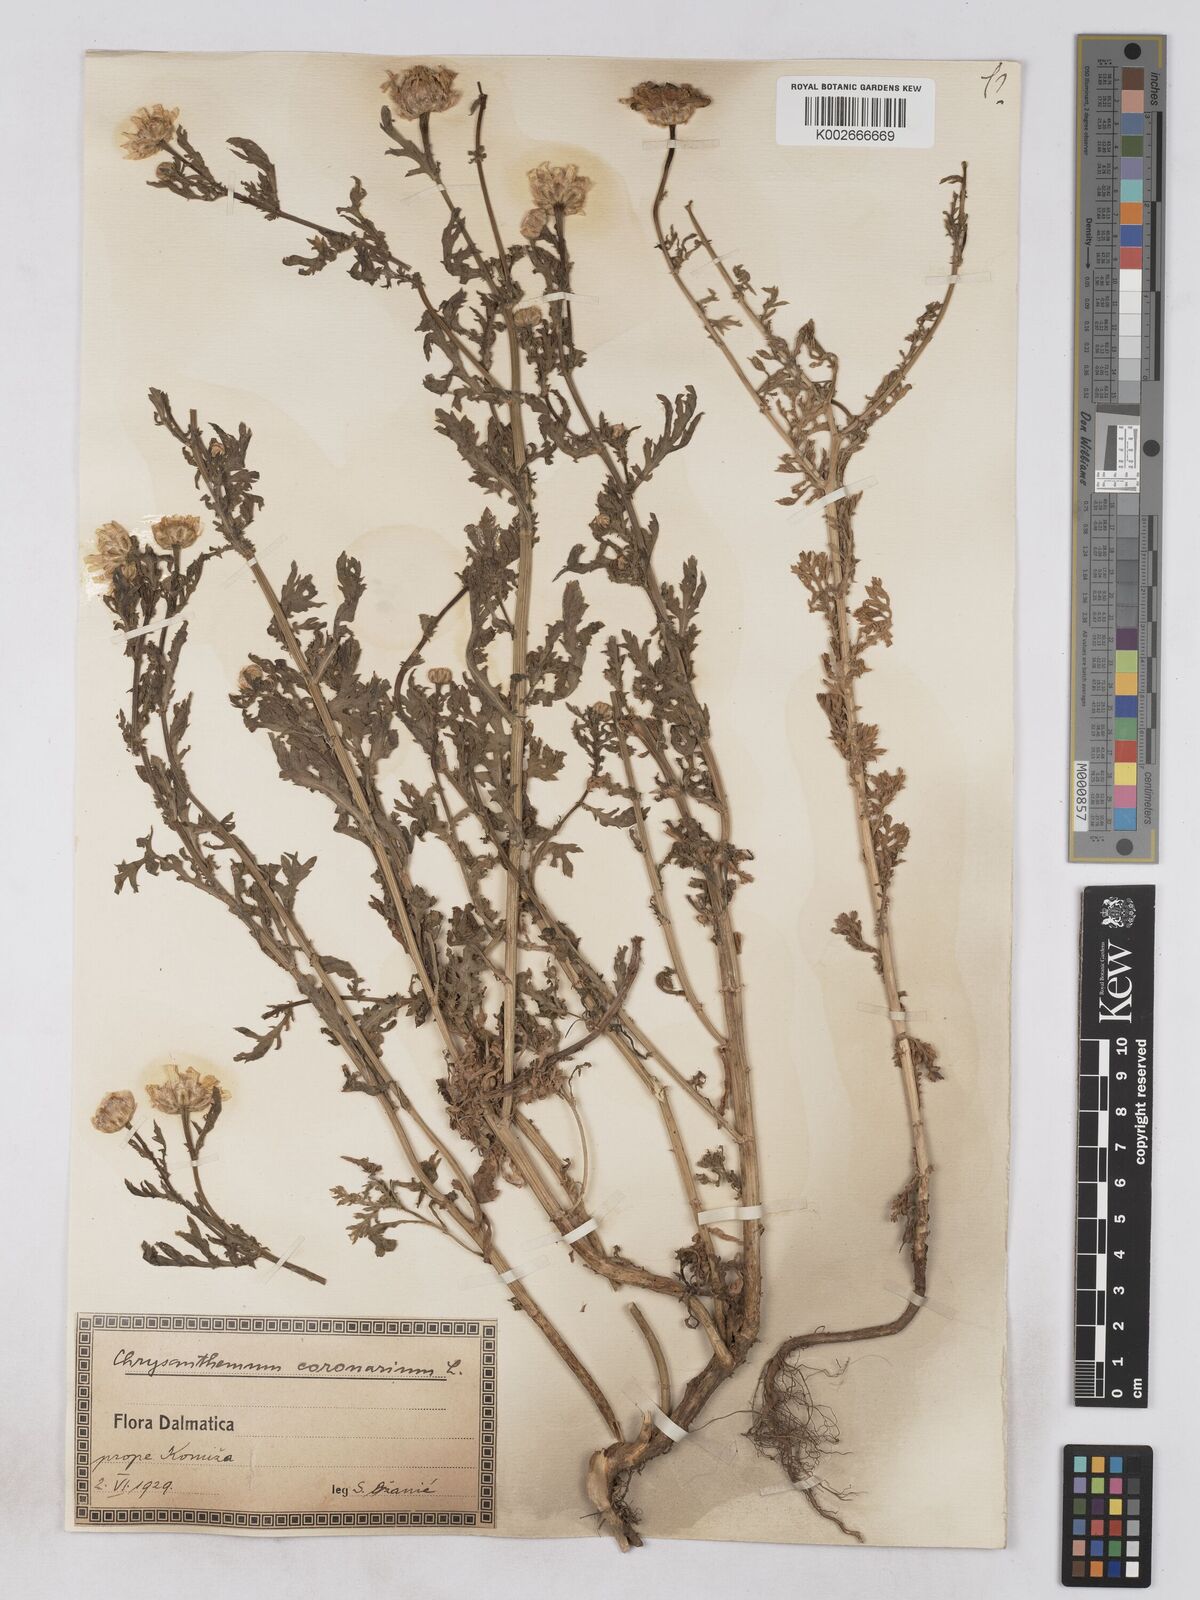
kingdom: Plantae
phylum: Tracheophyta
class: Magnoliopsida
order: Asterales
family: Asteraceae
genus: Glebionis
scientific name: Glebionis coronaria
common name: Crowndaisy
